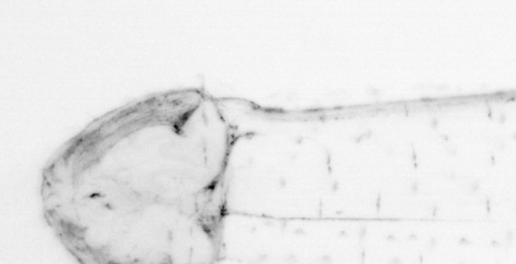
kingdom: Animalia
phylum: Chaetognatha
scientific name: Chaetognatha
